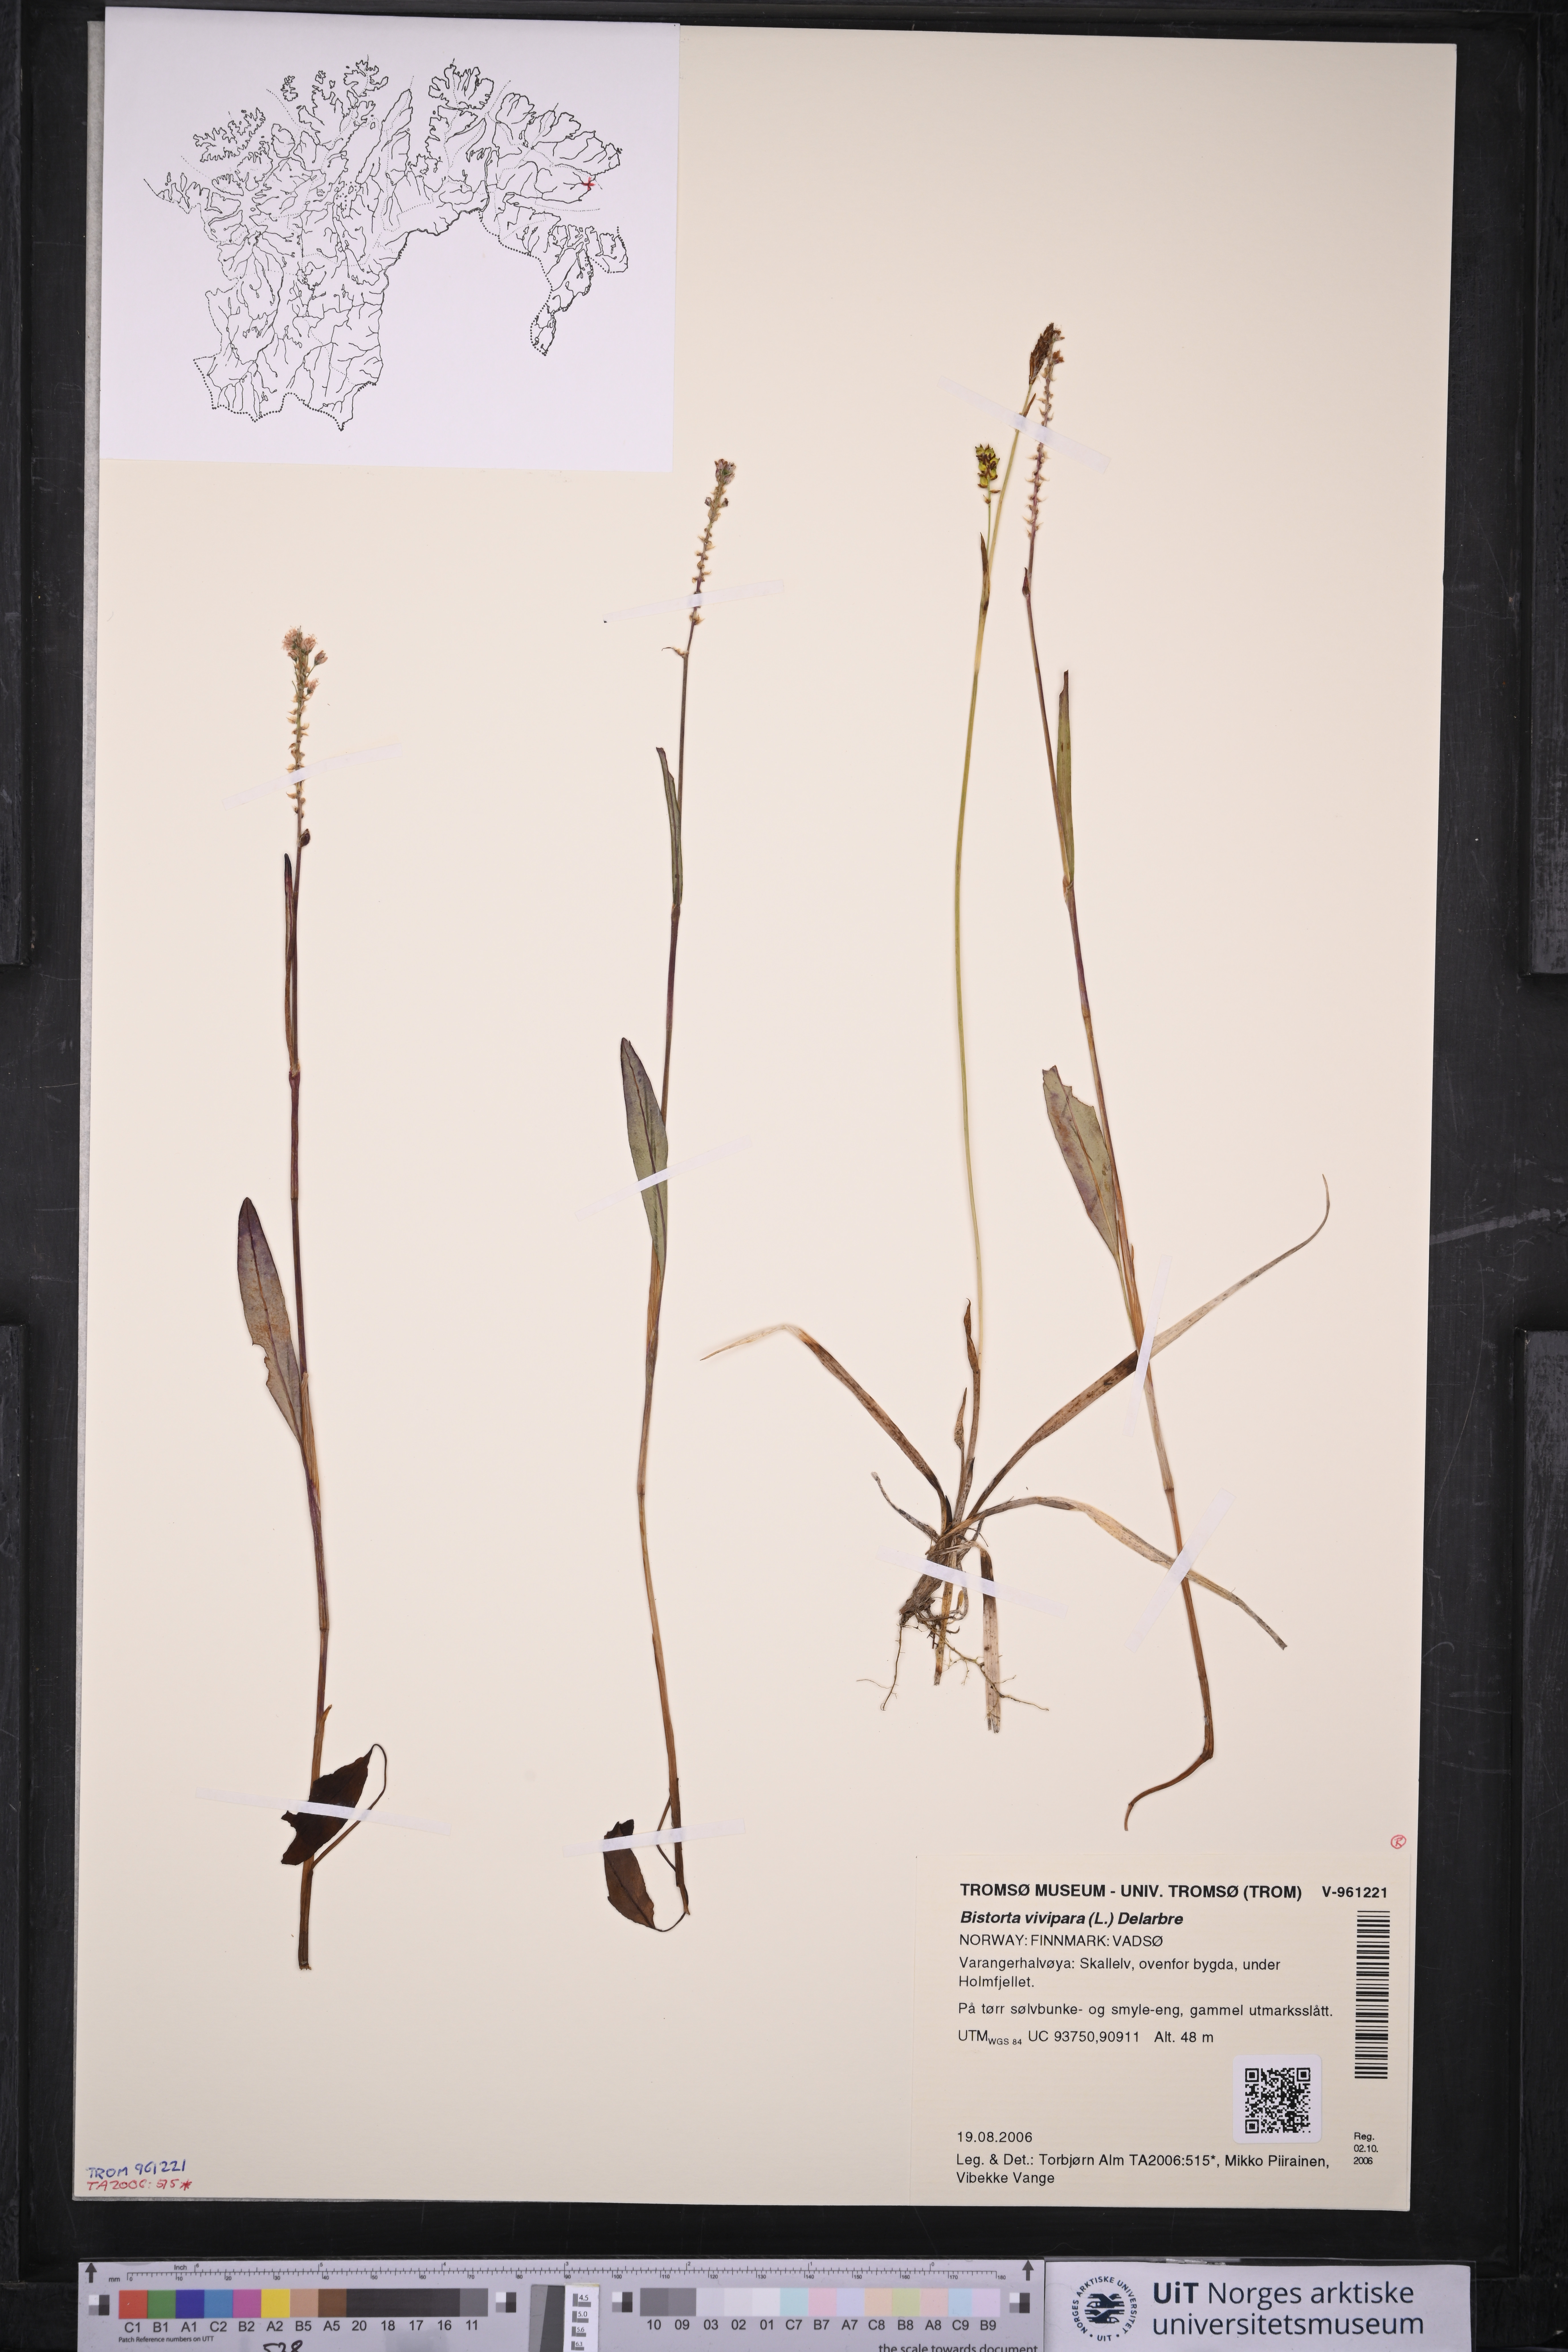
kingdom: Plantae
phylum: Tracheophyta
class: Magnoliopsida
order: Caryophyllales
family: Polygonaceae
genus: Bistorta
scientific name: Bistorta vivipara
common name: Alpine bistort
